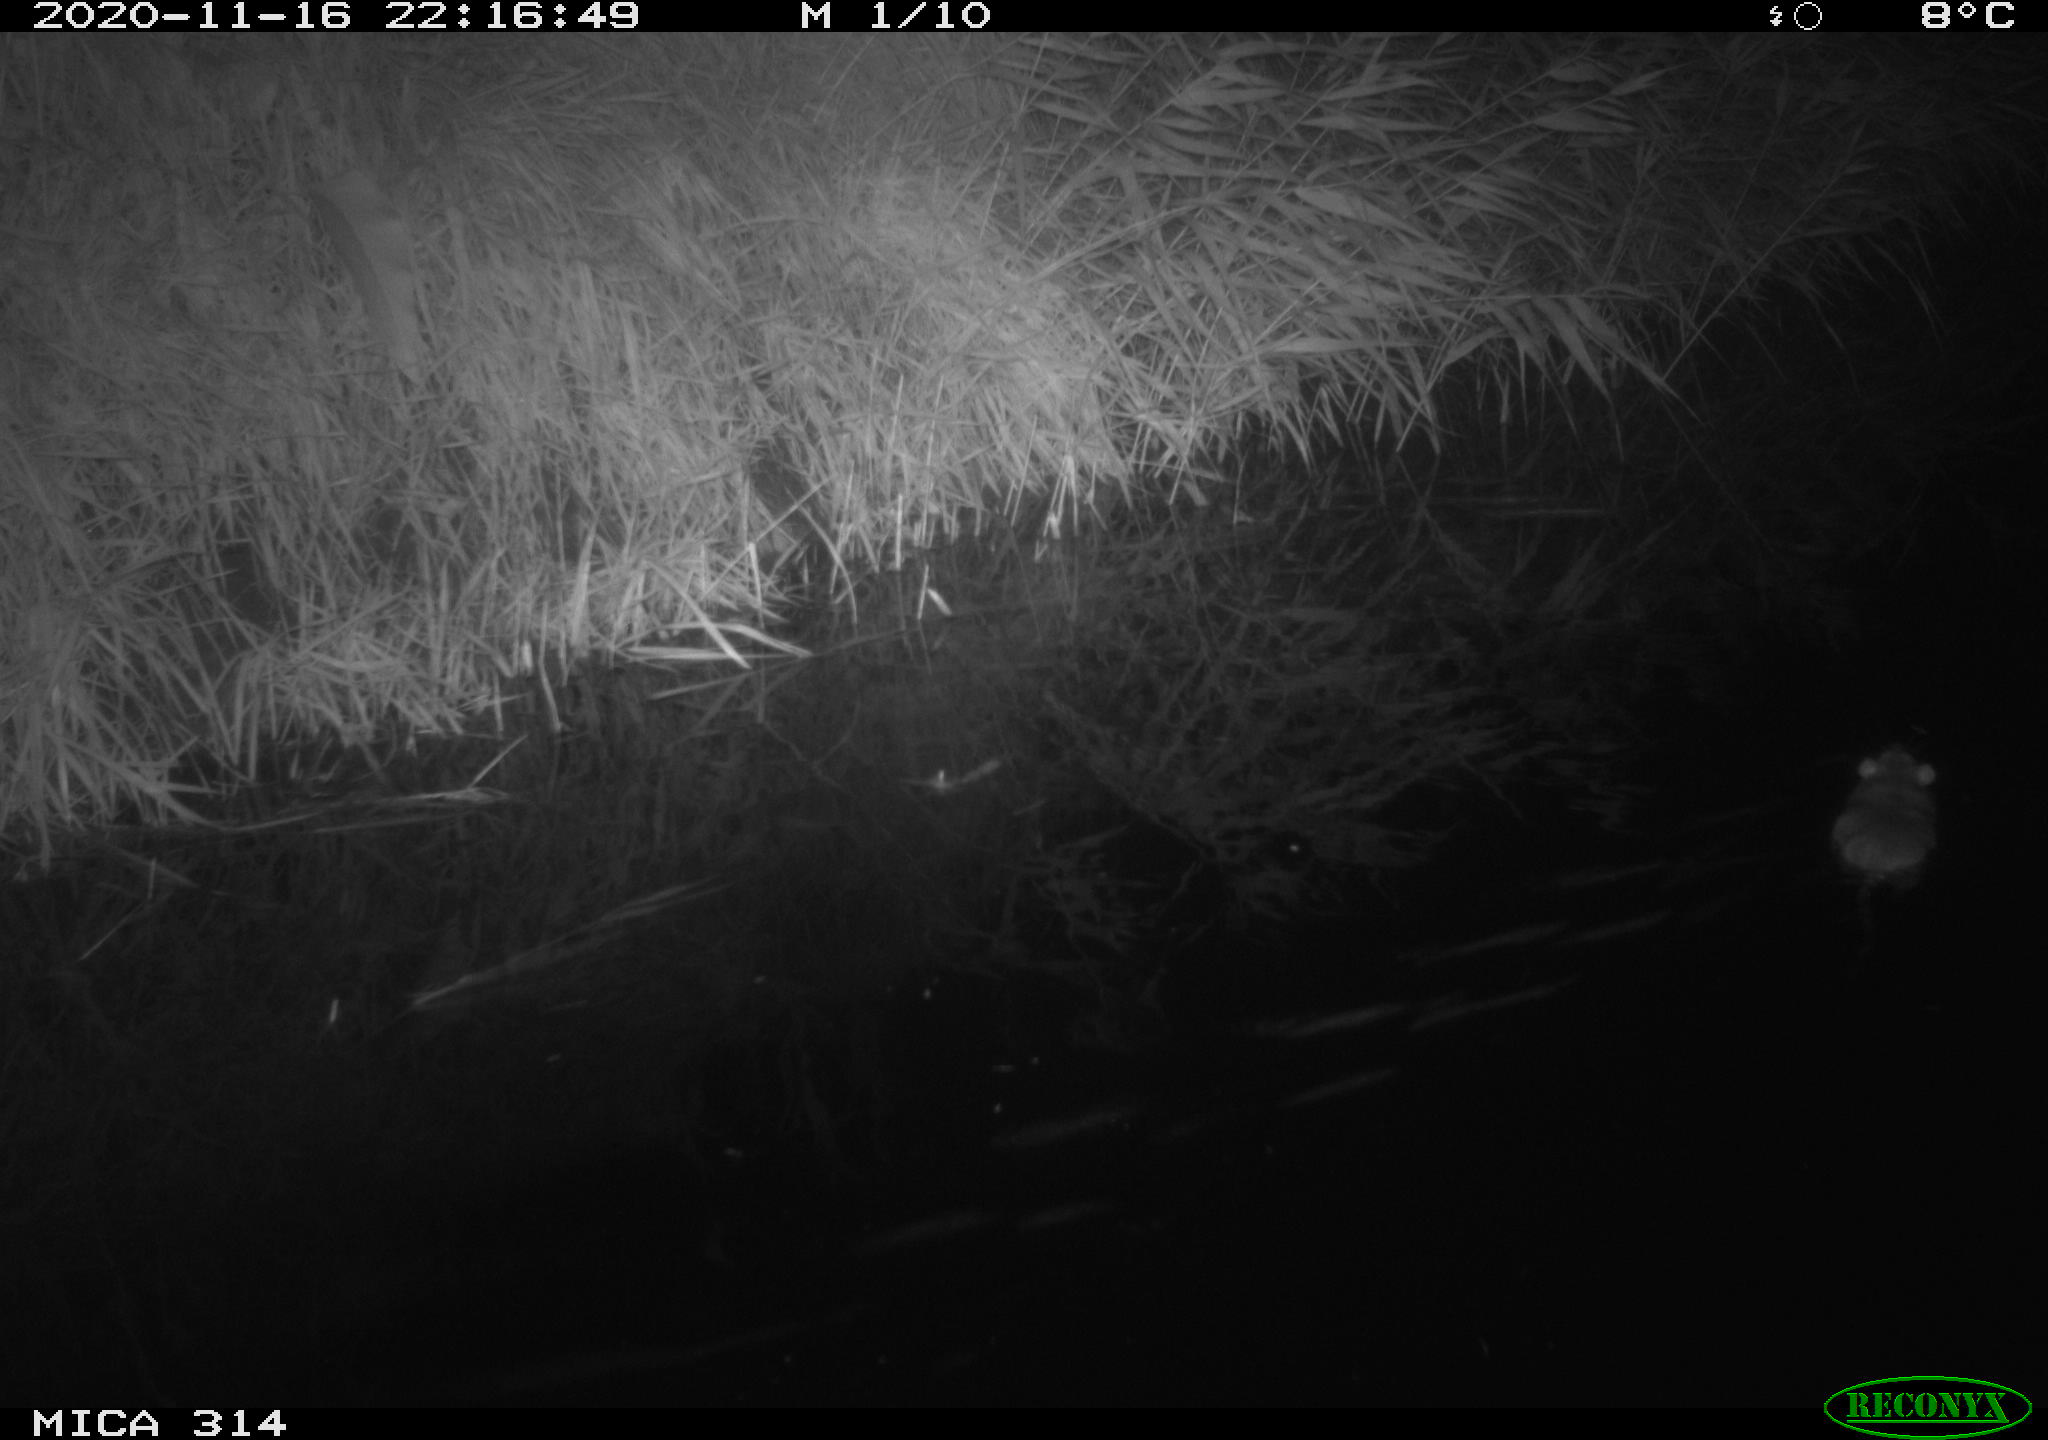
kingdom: Animalia
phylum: Chordata
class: Mammalia
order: Rodentia
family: Muridae
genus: Rattus
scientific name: Rattus norvegicus
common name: Brown rat
